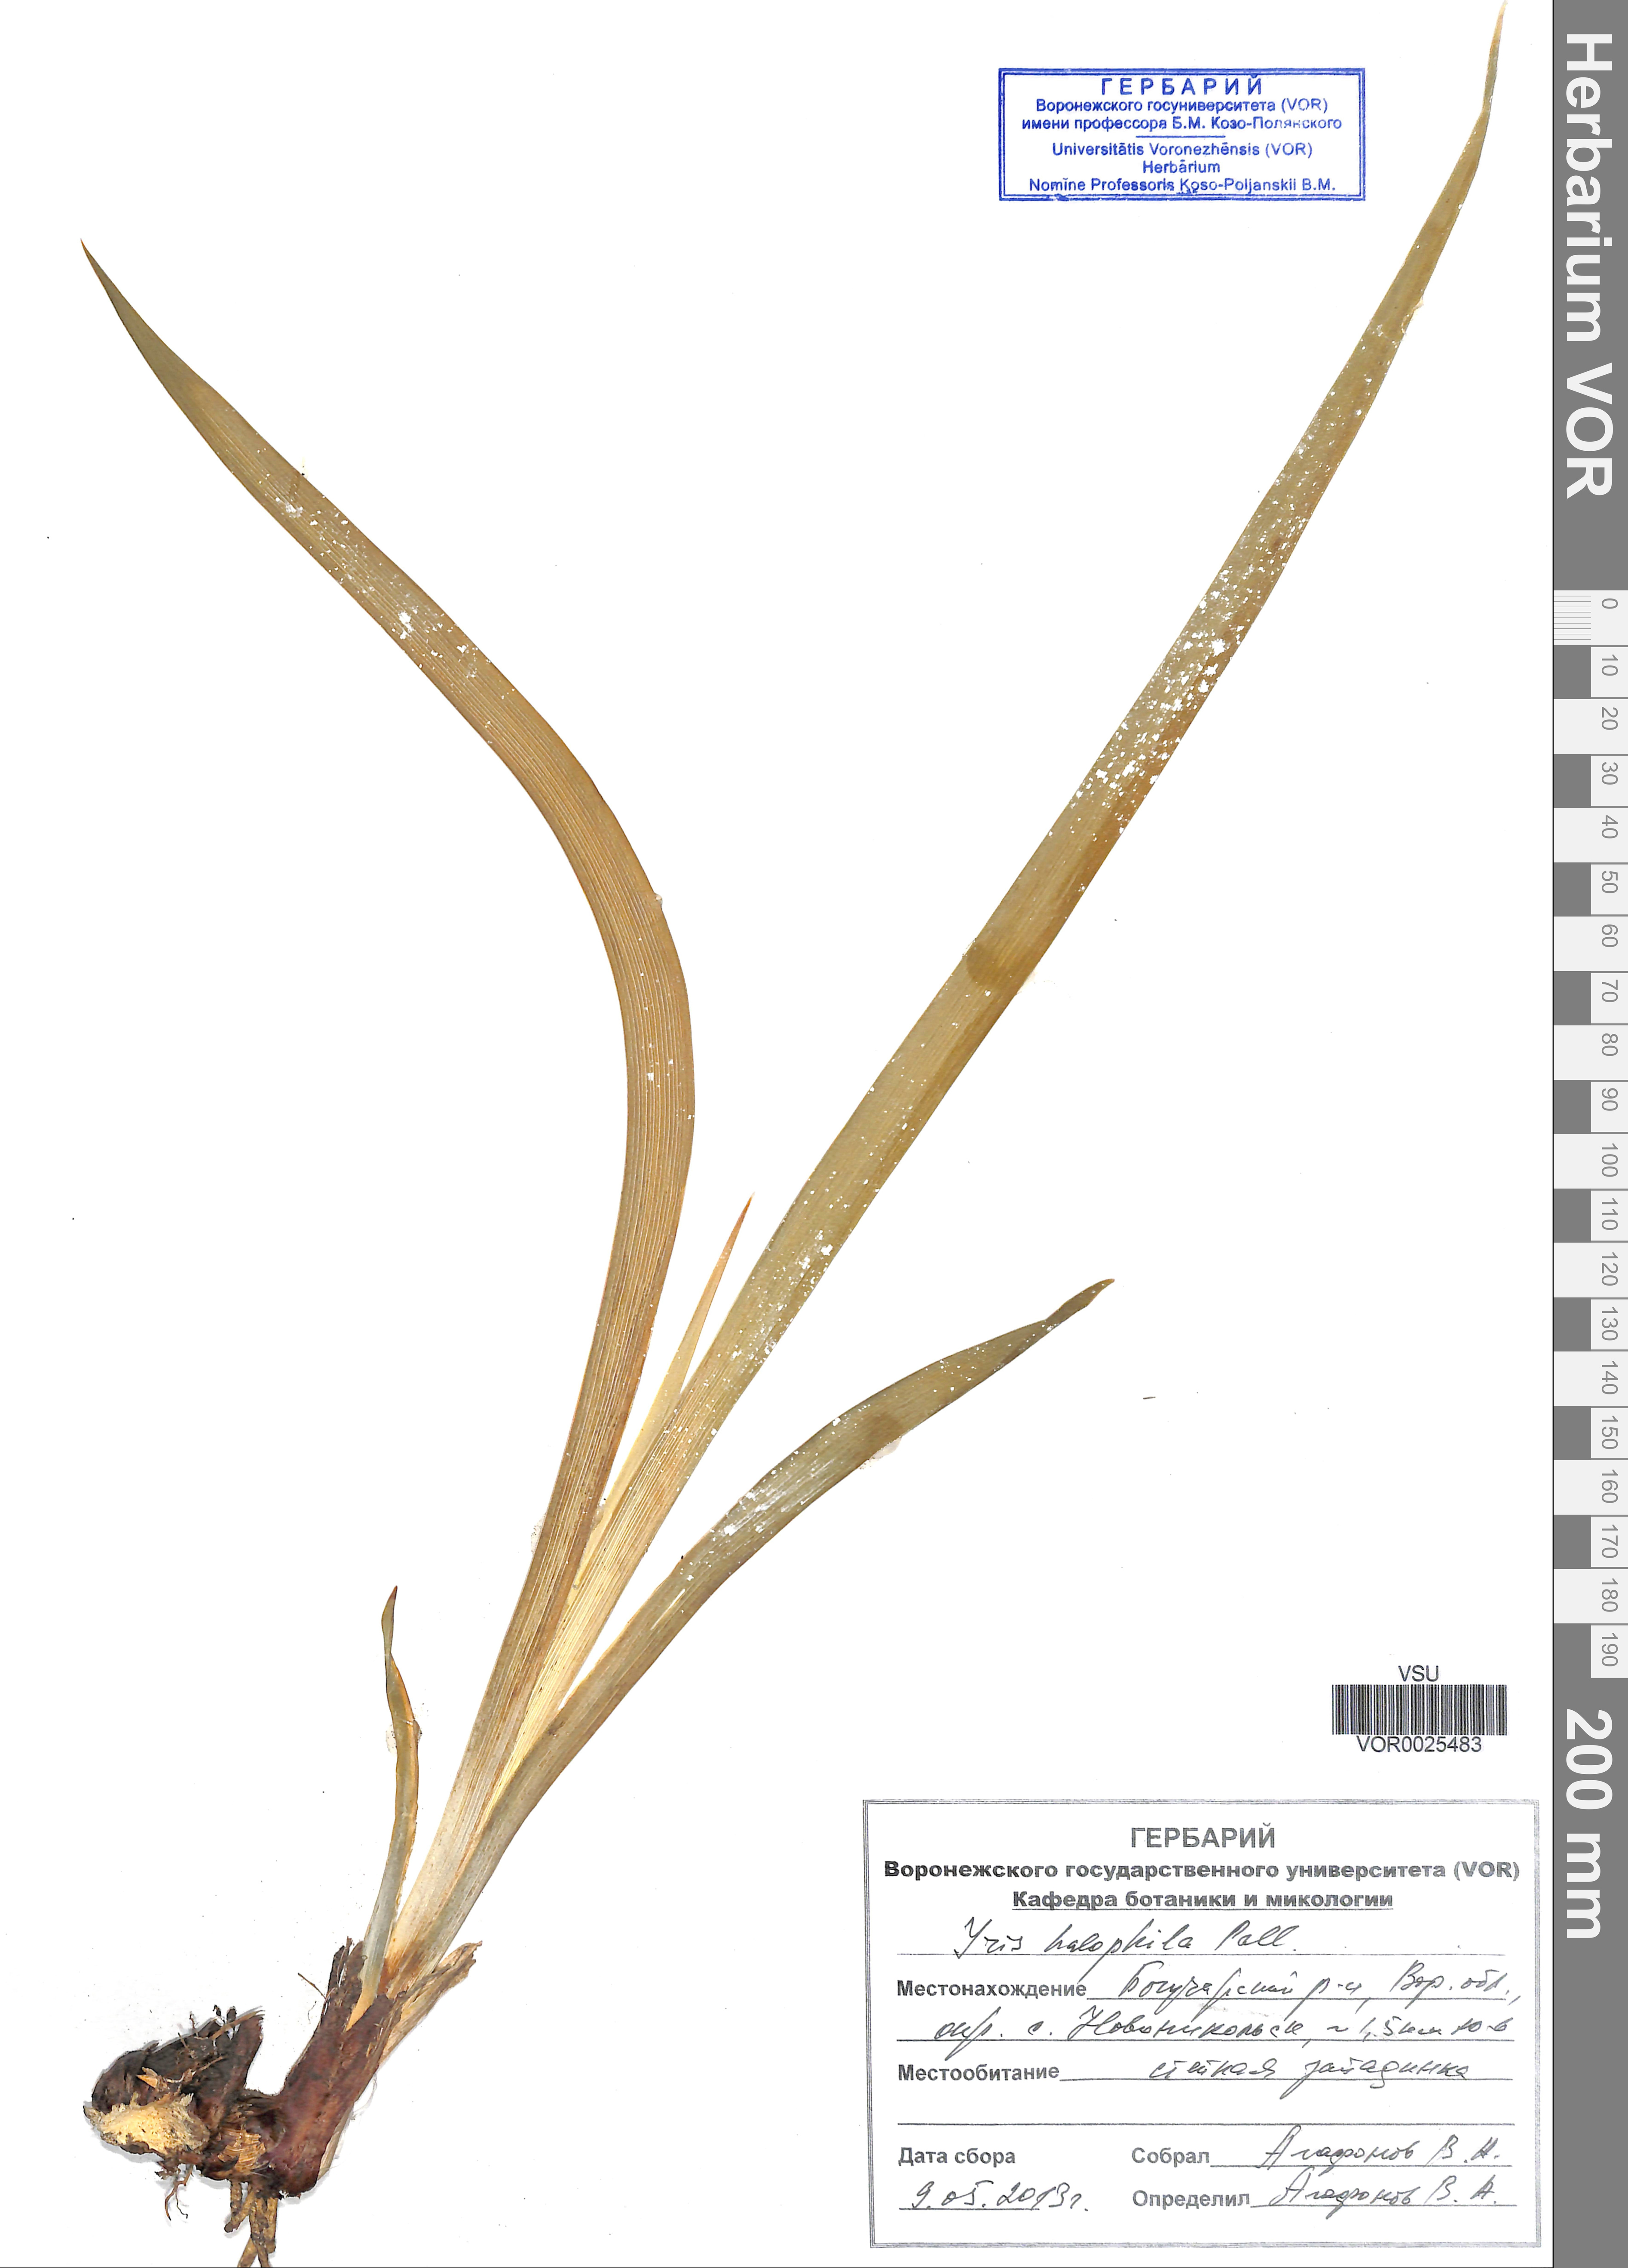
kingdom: Plantae
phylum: Tracheophyta
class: Liliopsida
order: Asparagales
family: Iridaceae
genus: Iris
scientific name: Iris halophila
